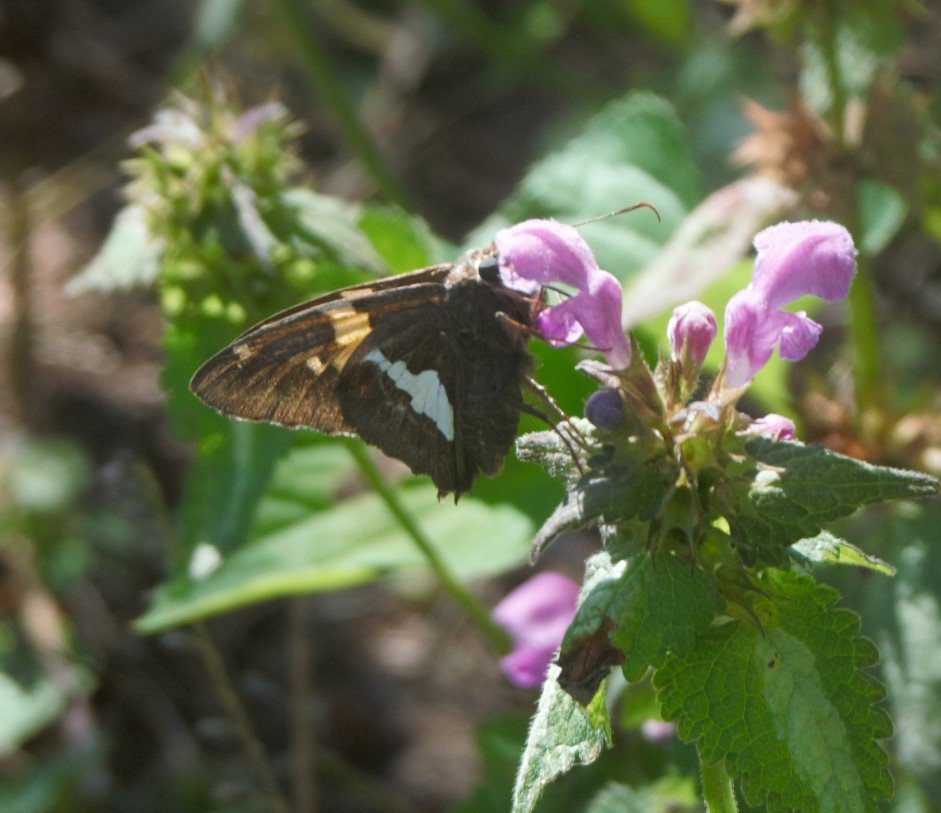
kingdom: Animalia
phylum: Arthropoda
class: Insecta
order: Lepidoptera
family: Hesperiidae
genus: Epargyreus
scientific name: Epargyreus clarus
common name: Silver-spotted Skipper
